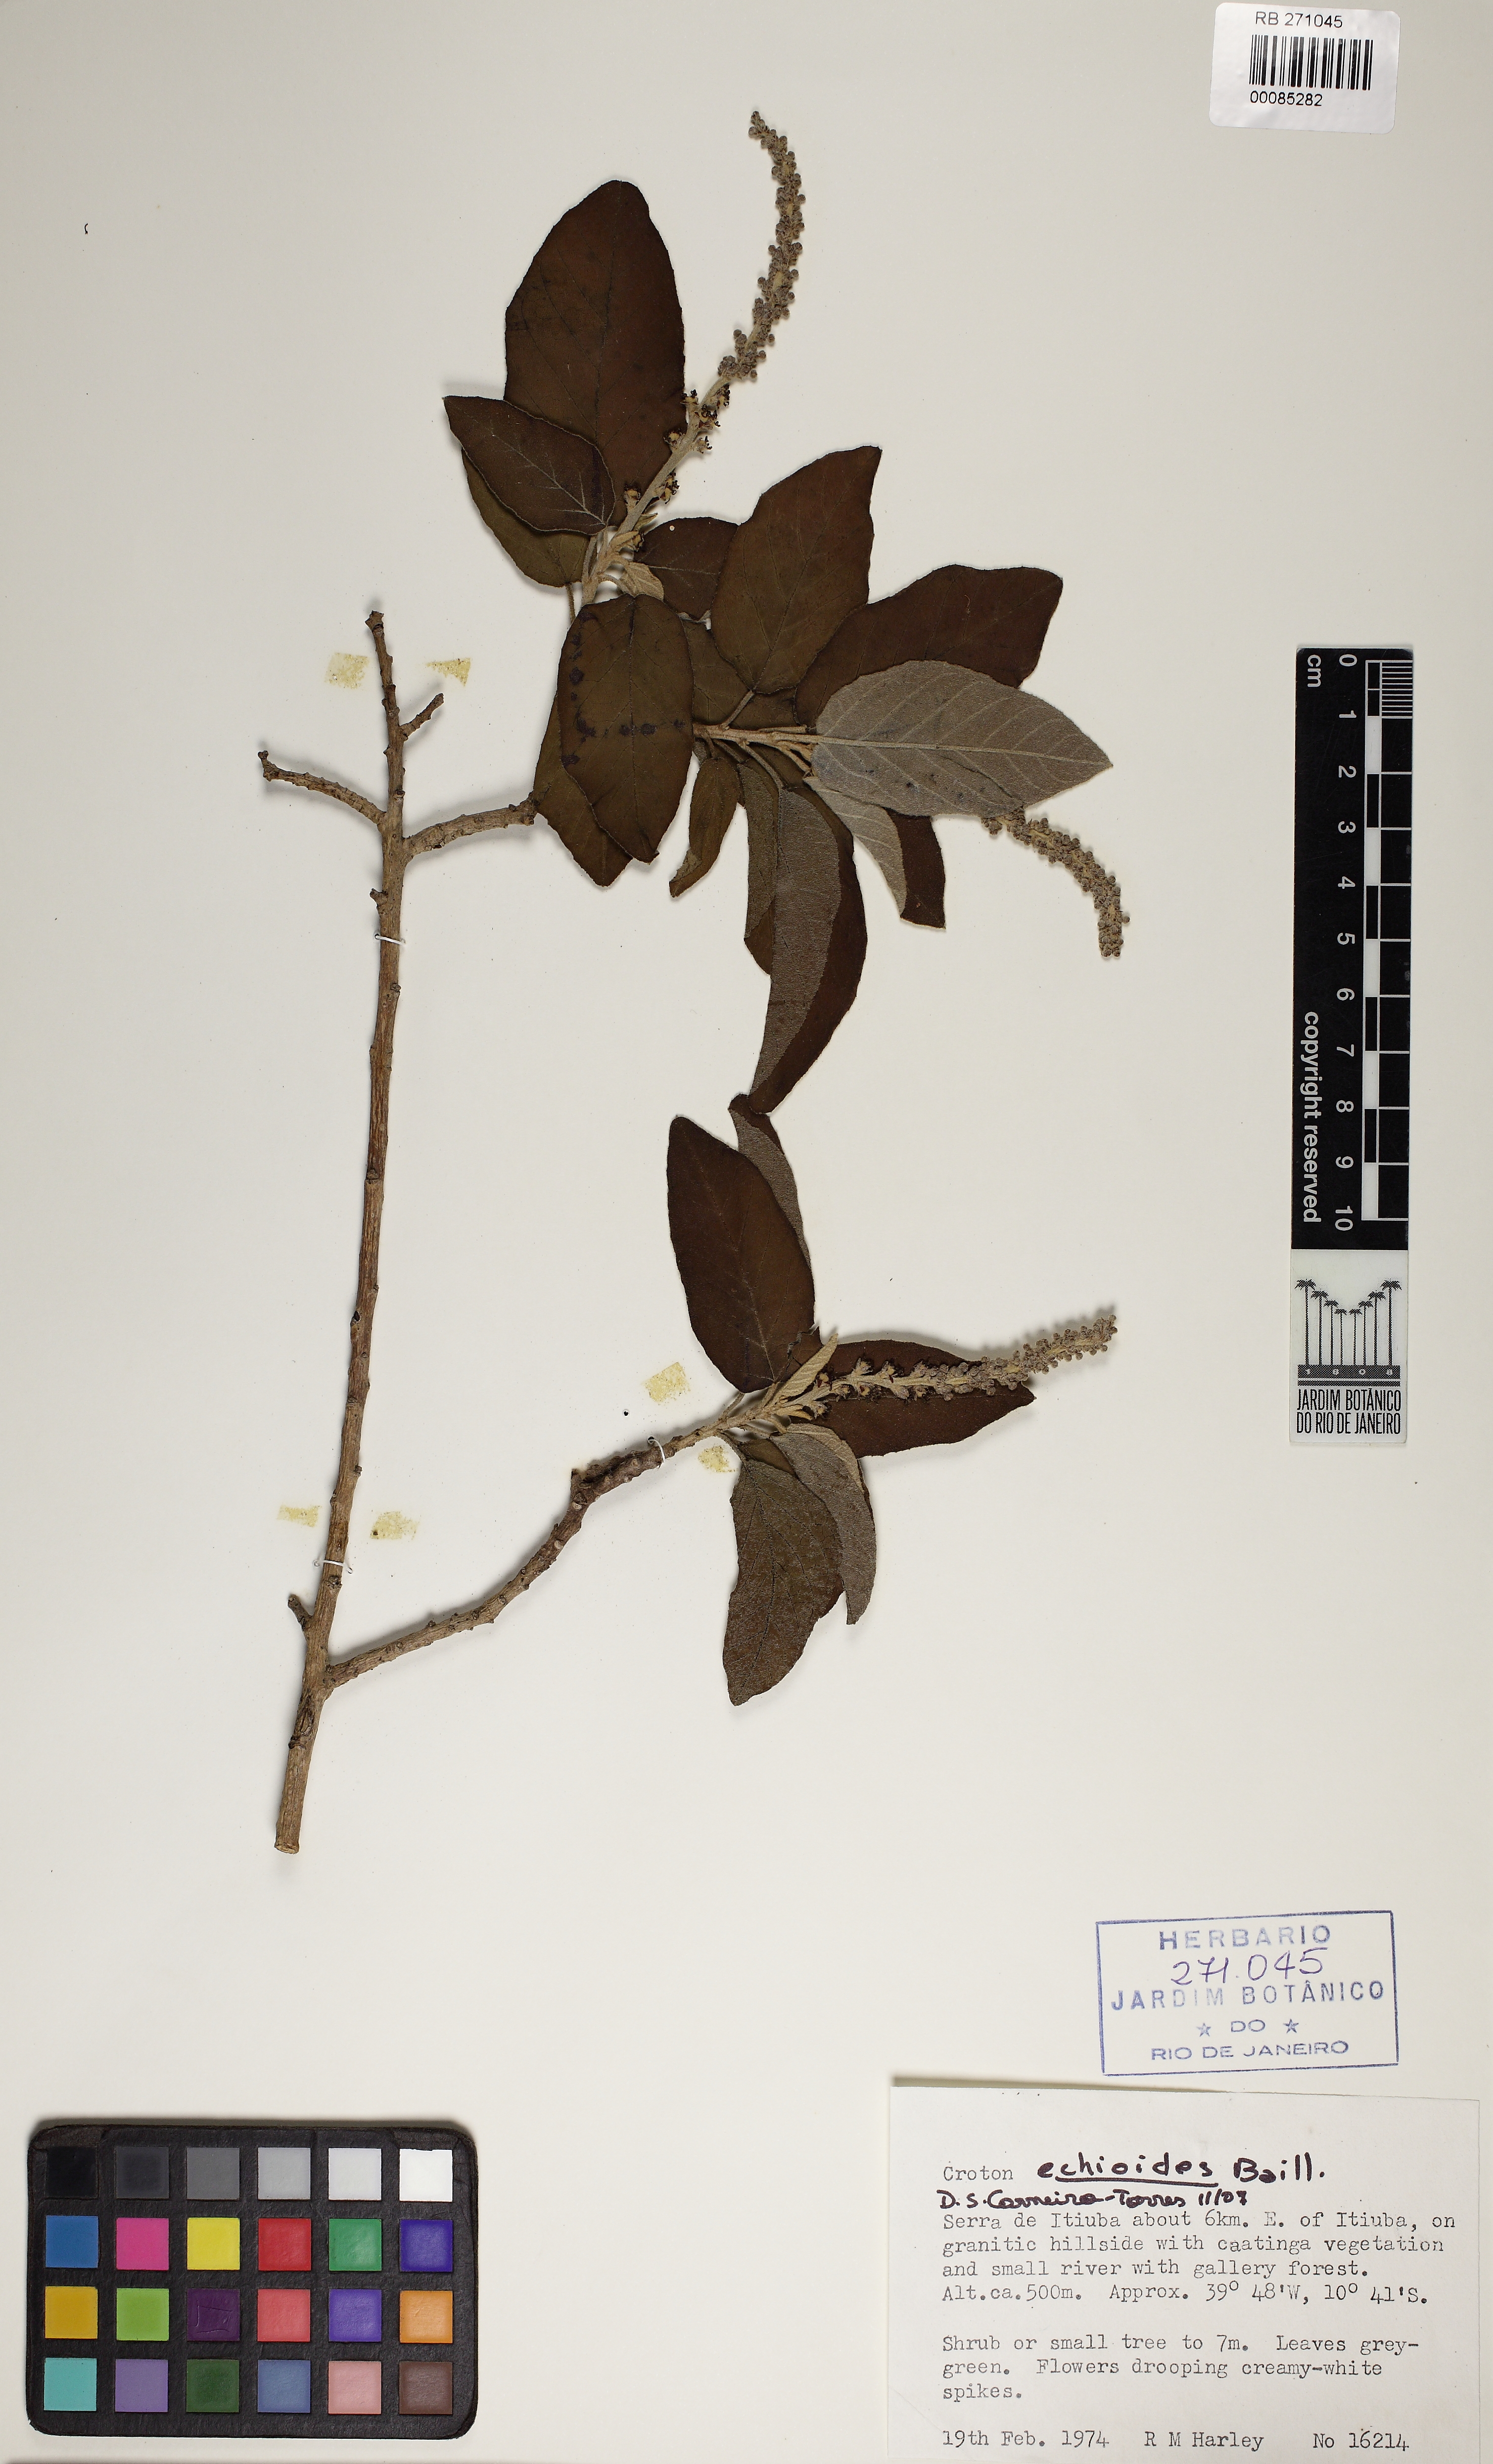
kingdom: Plantae
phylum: Tracheophyta
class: Magnoliopsida
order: Malpighiales
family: Euphorbiaceae
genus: Croton
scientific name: Croton echioides
